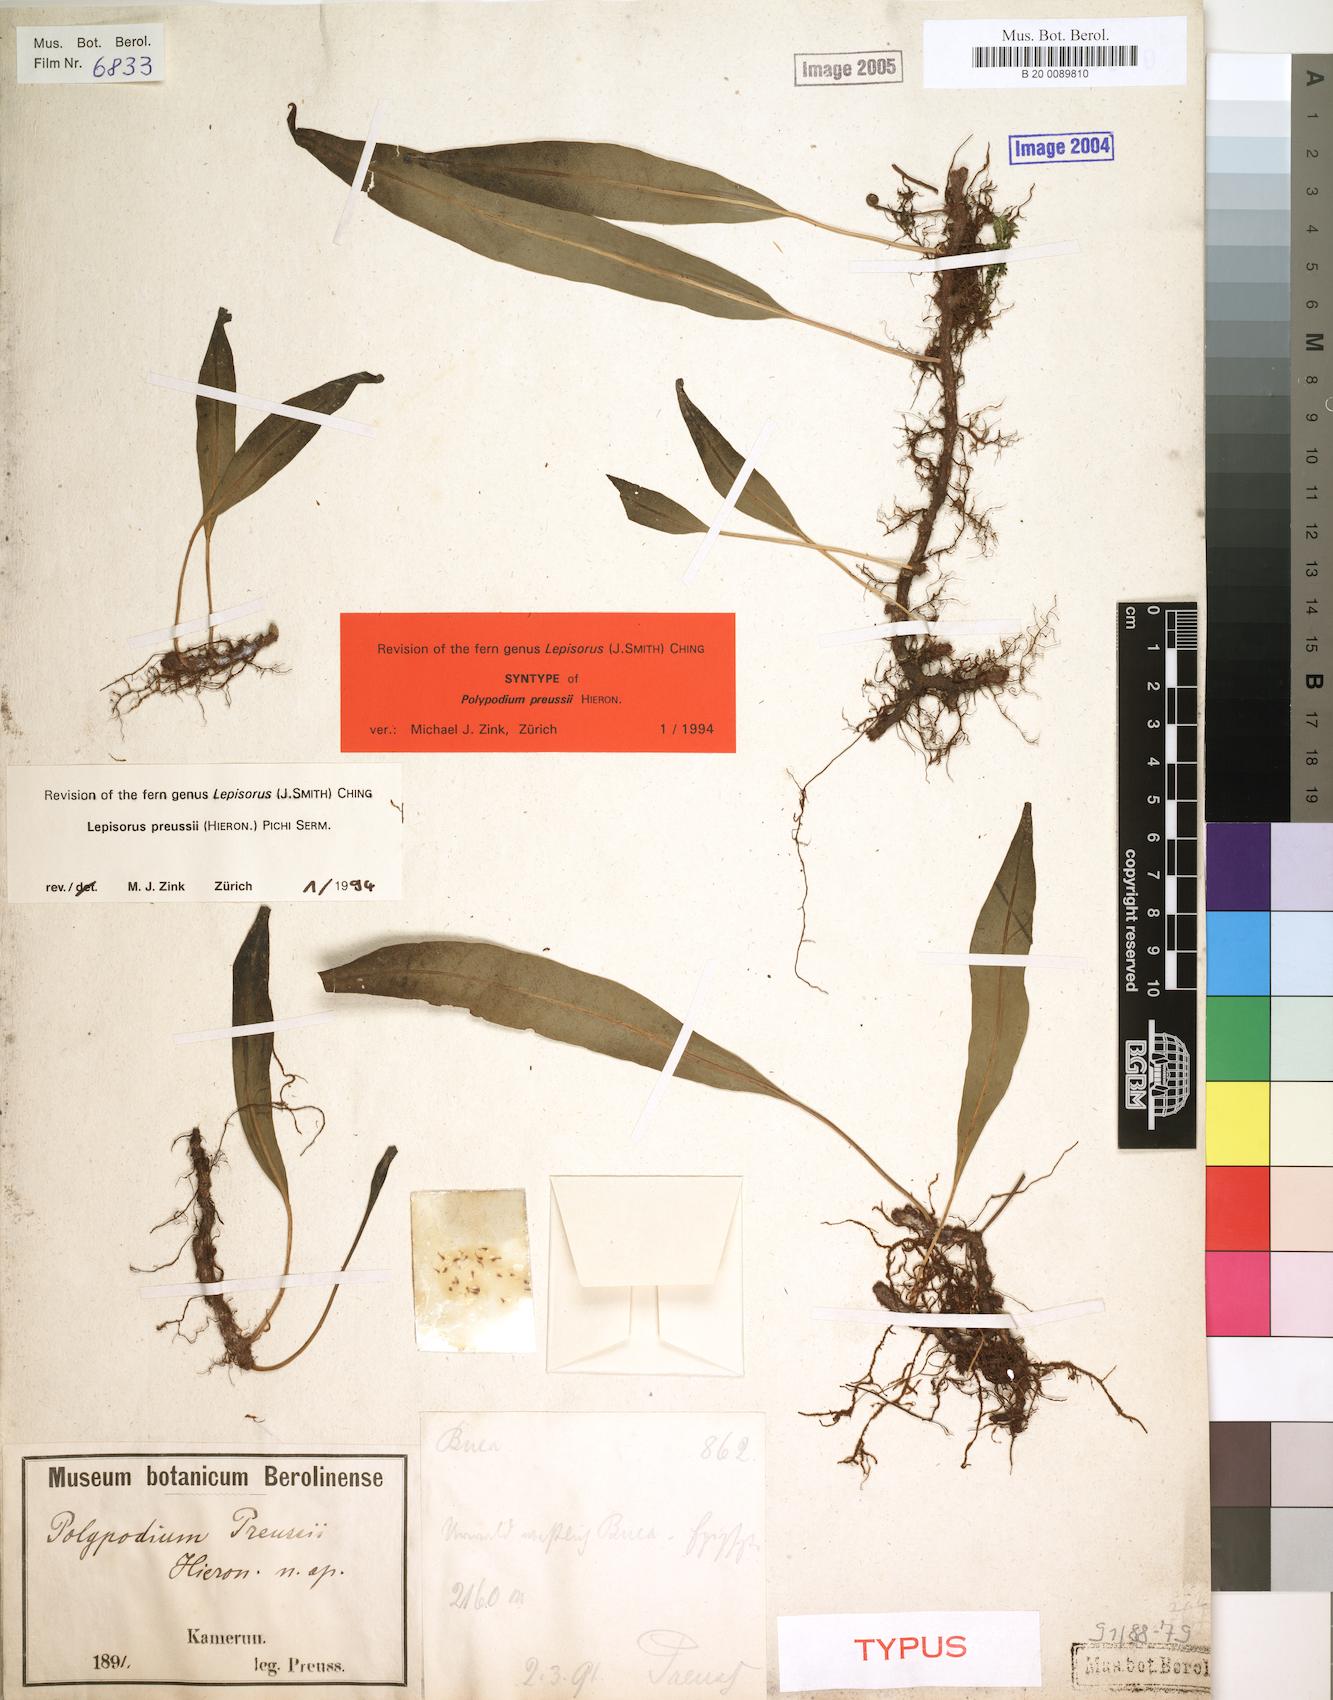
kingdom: Plantae
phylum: Tracheophyta
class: Polypodiopsida
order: Polypodiales
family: Polypodiaceae
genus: Lepisorus
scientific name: Lepisorus excavatus
